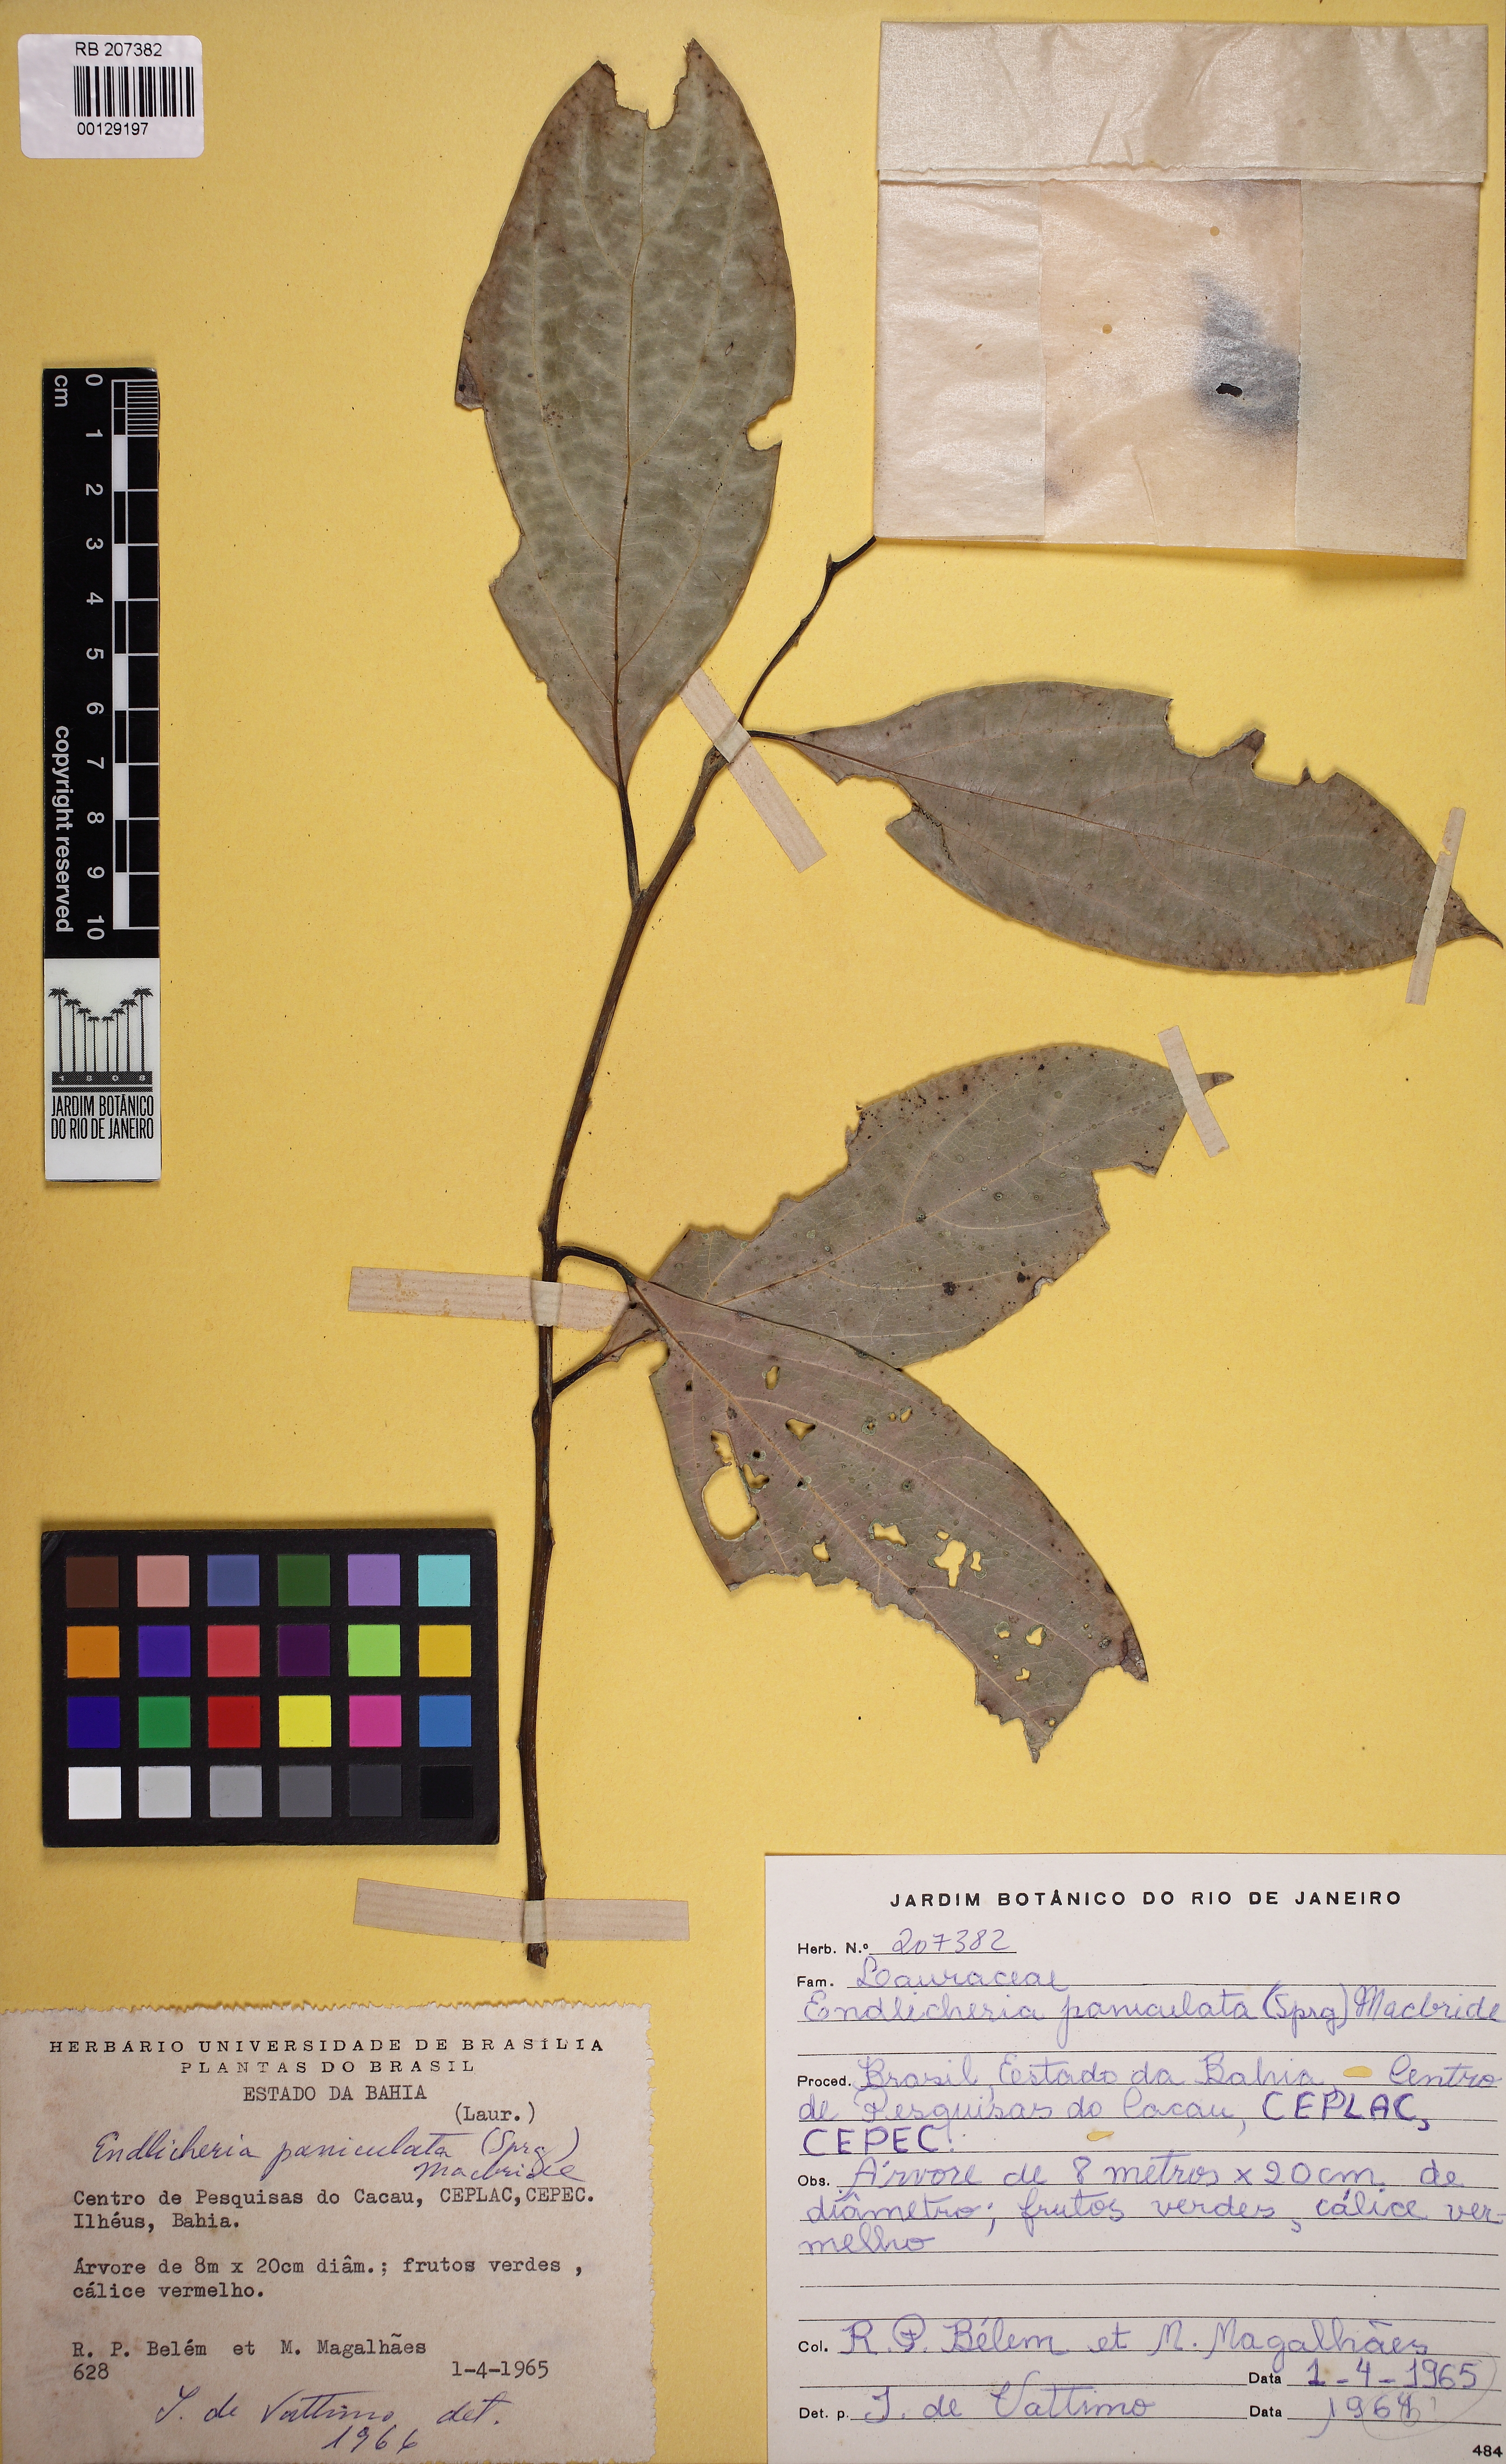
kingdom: Plantae
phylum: Tracheophyta
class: Magnoliopsida
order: Laurales
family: Lauraceae
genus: Endlicheria
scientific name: Endlicheria paniculata
